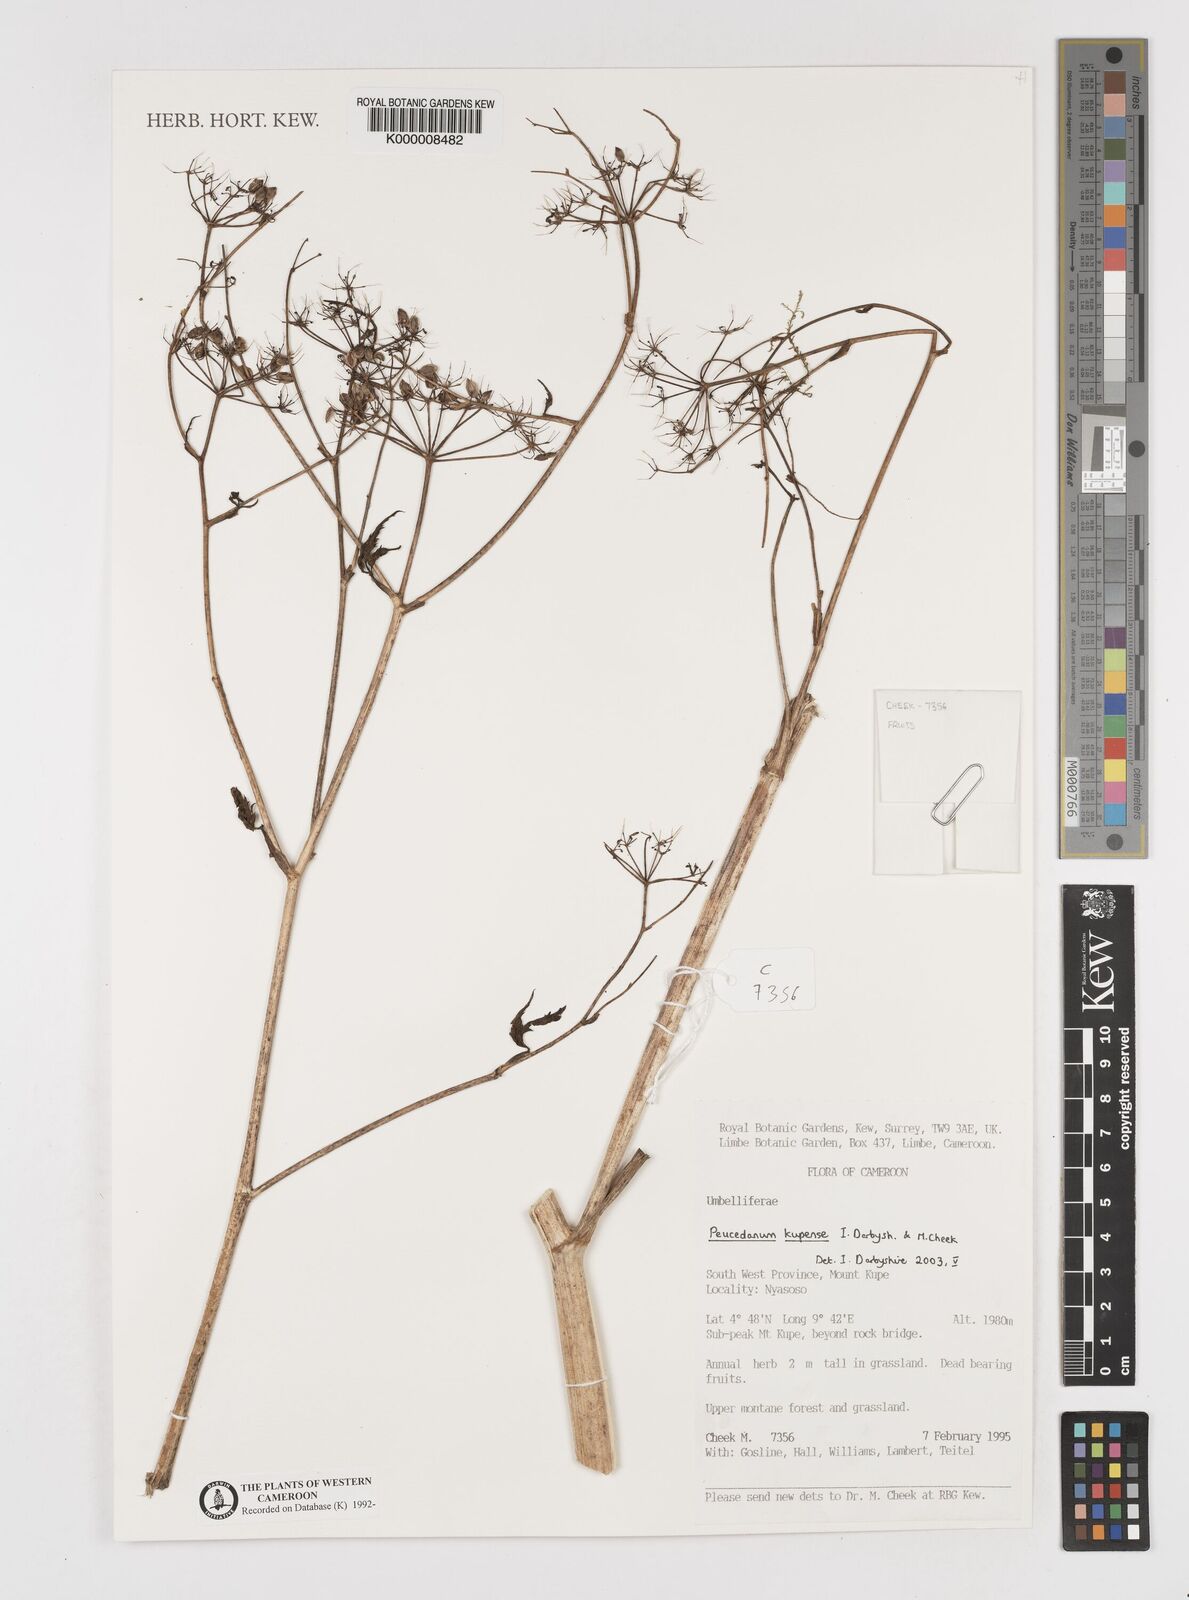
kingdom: Plantae
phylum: Tracheophyta
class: Magnoliopsida
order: Apiales
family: Apiaceae
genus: Lefebvrea
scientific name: Lefebvrea
